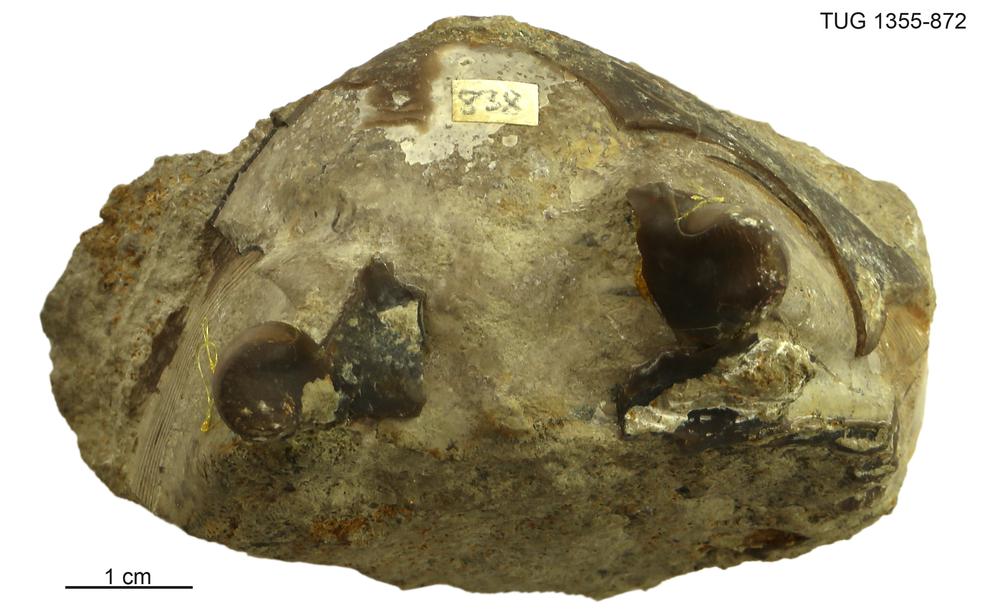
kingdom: Animalia
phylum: Arthropoda
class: Trilobita
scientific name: Trilobita
